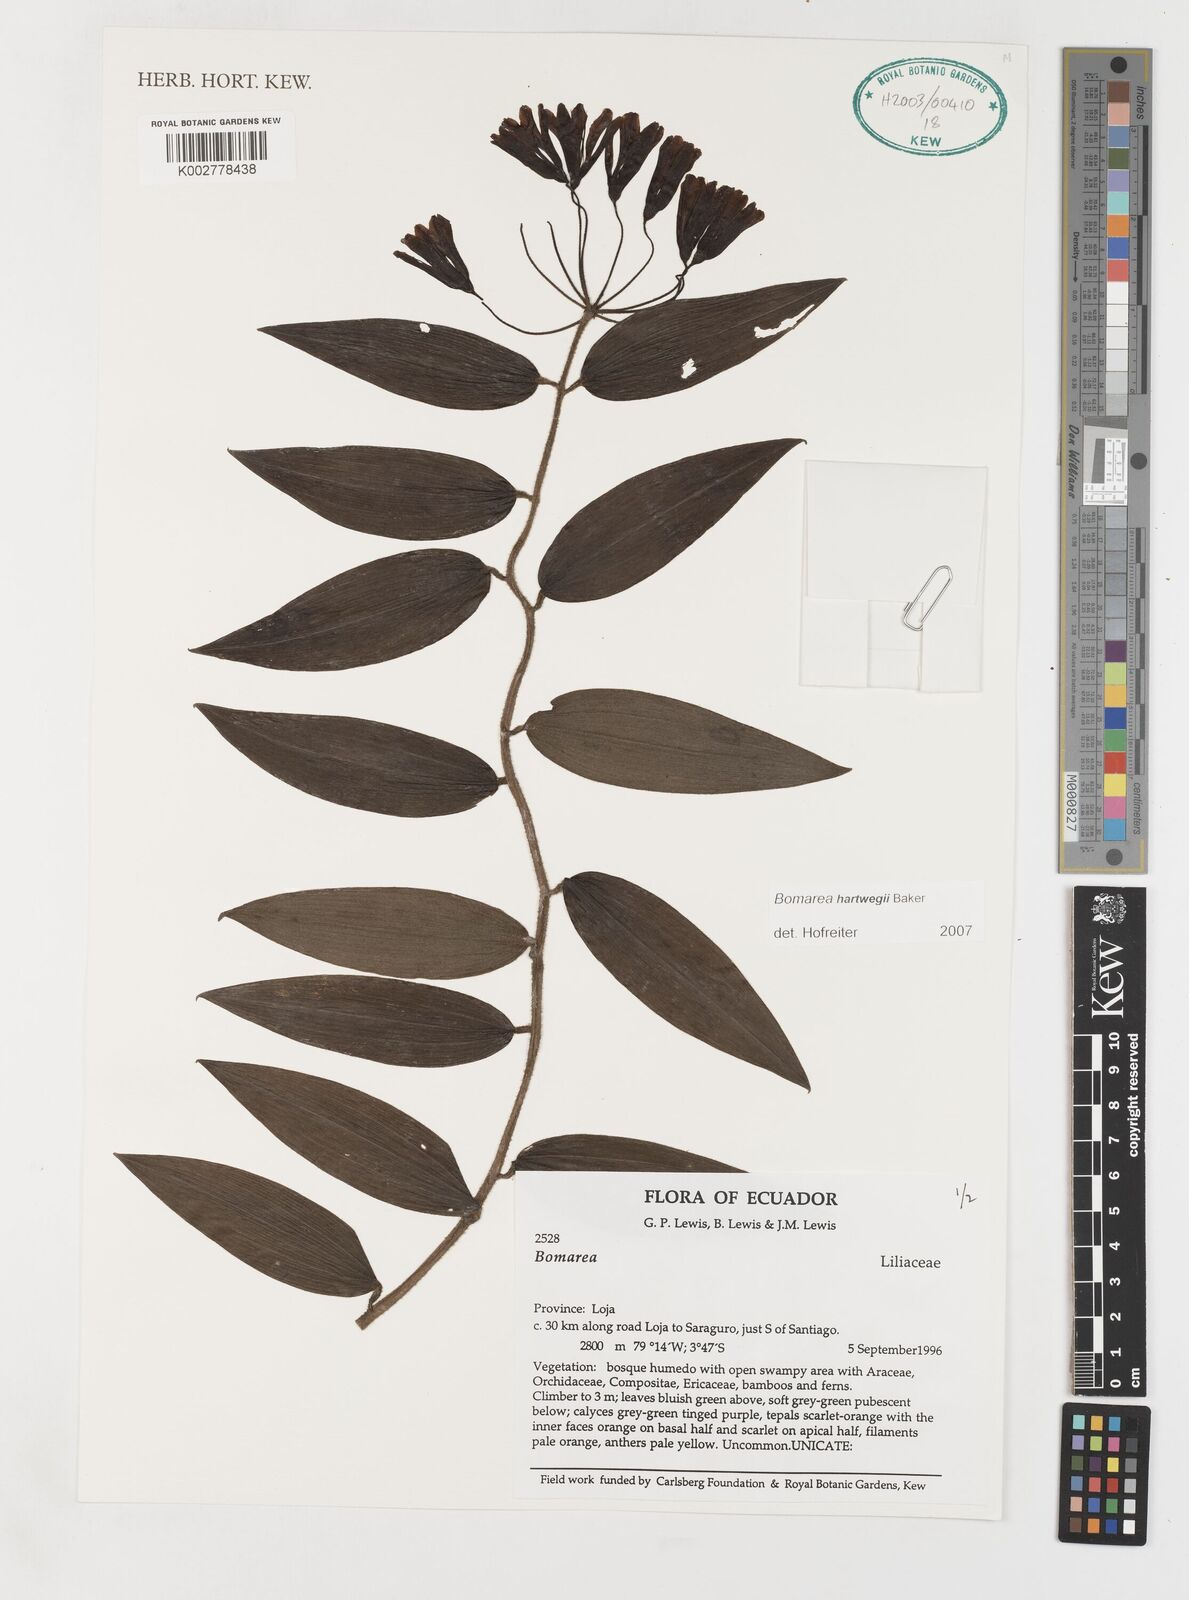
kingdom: Plantae
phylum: Tracheophyta
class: Liliopsida
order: Liliales
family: Alstroemeriaceae
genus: Bomarea
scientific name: Bomarea hartwegii
